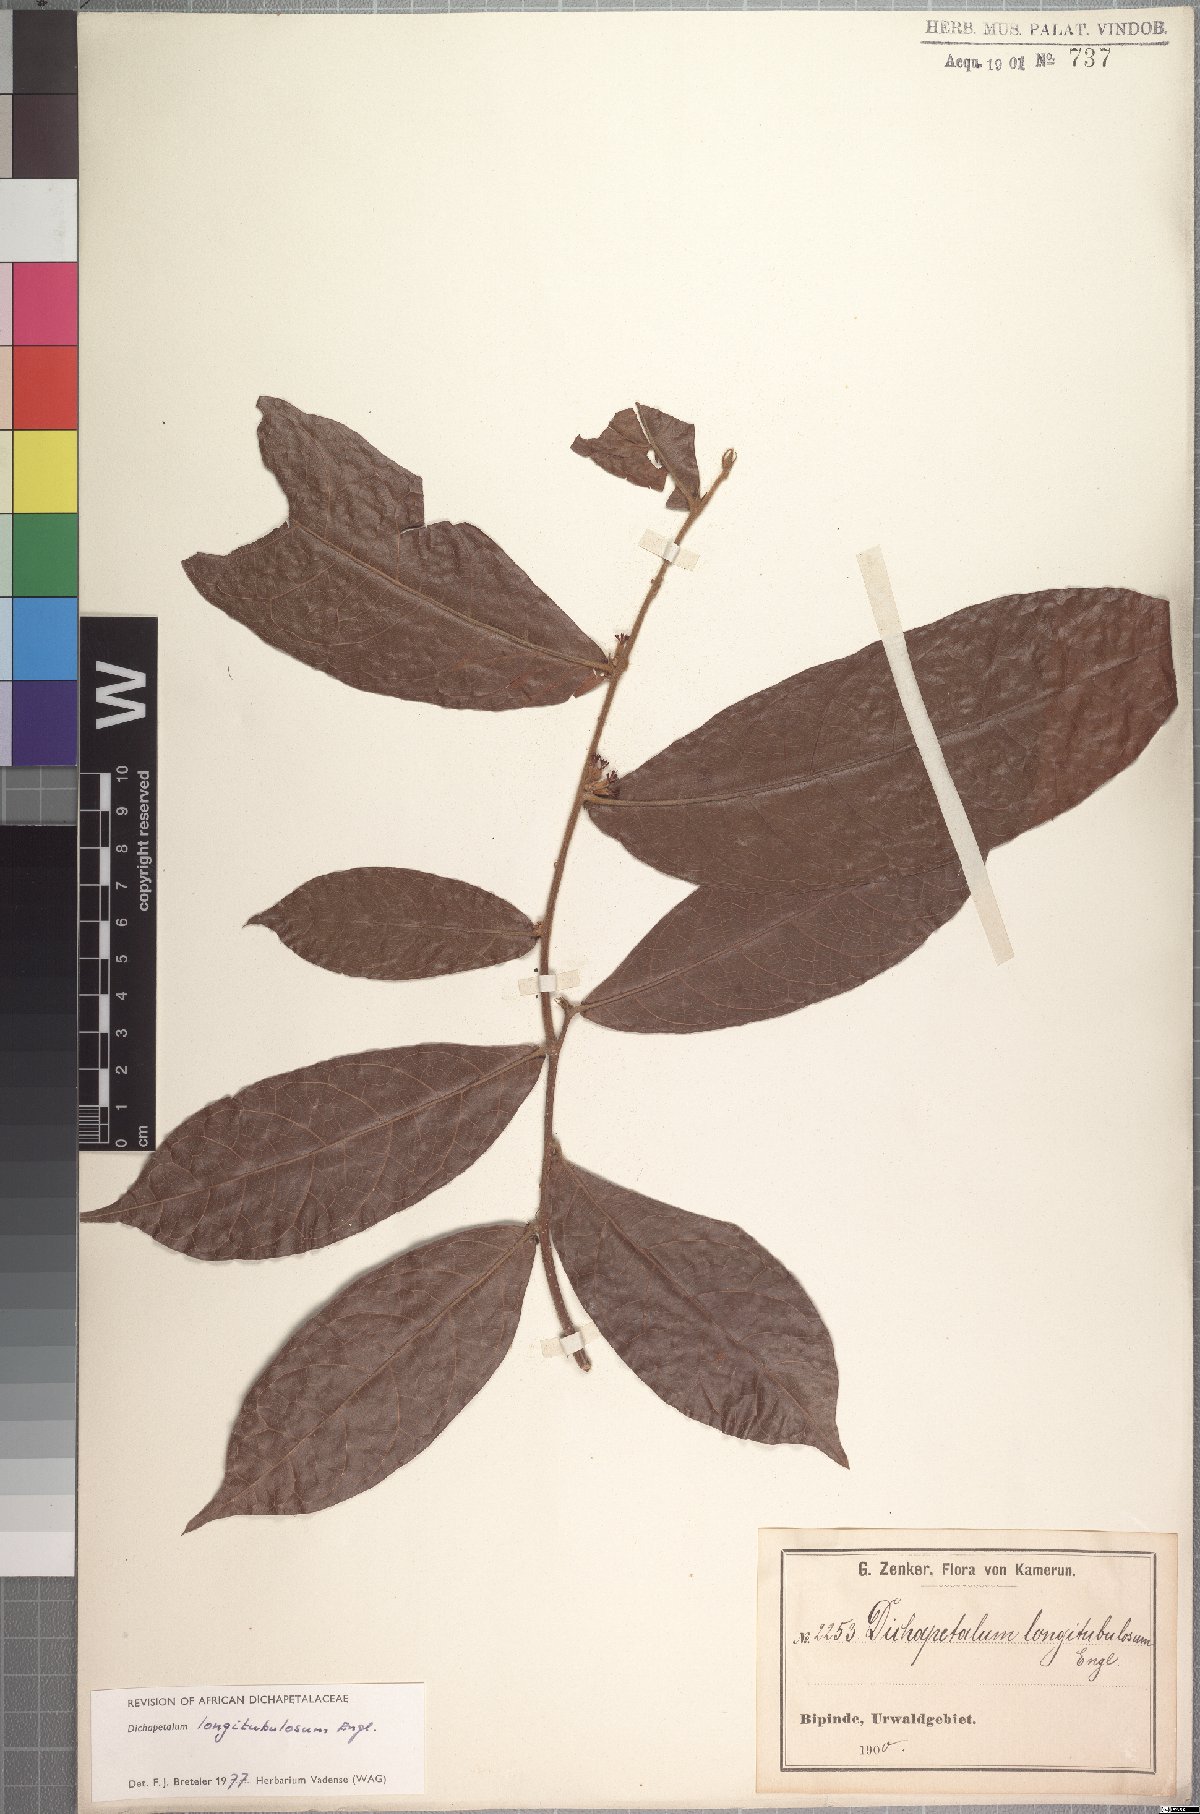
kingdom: Plantae
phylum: Tracheophyta
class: Magnoliopsida
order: Malpighiales
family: Dichapetalaceae
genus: Dichapetalum
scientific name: Dichapetalum heudelotii
